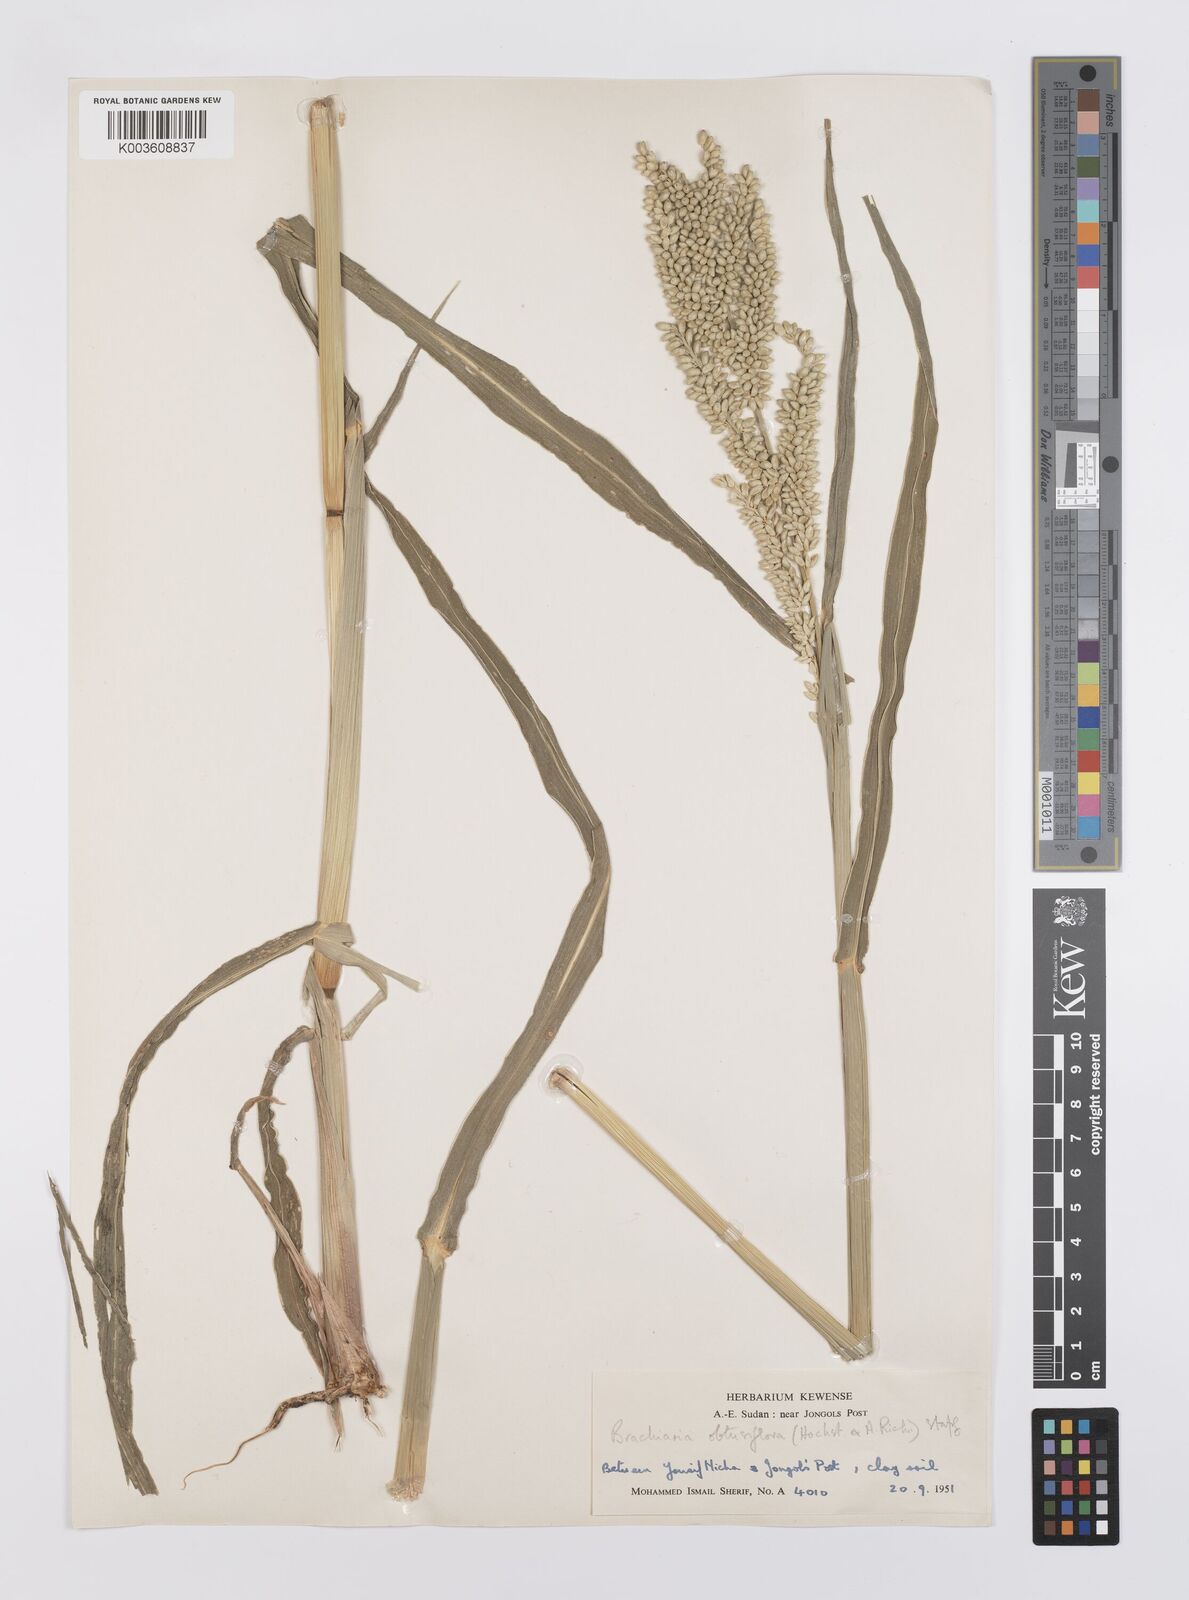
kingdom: Plantae
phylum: Tracheophyta
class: Liliopsida
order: Poales
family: Poaceae
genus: Echinochloa
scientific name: Echinochloa rotundiflora
